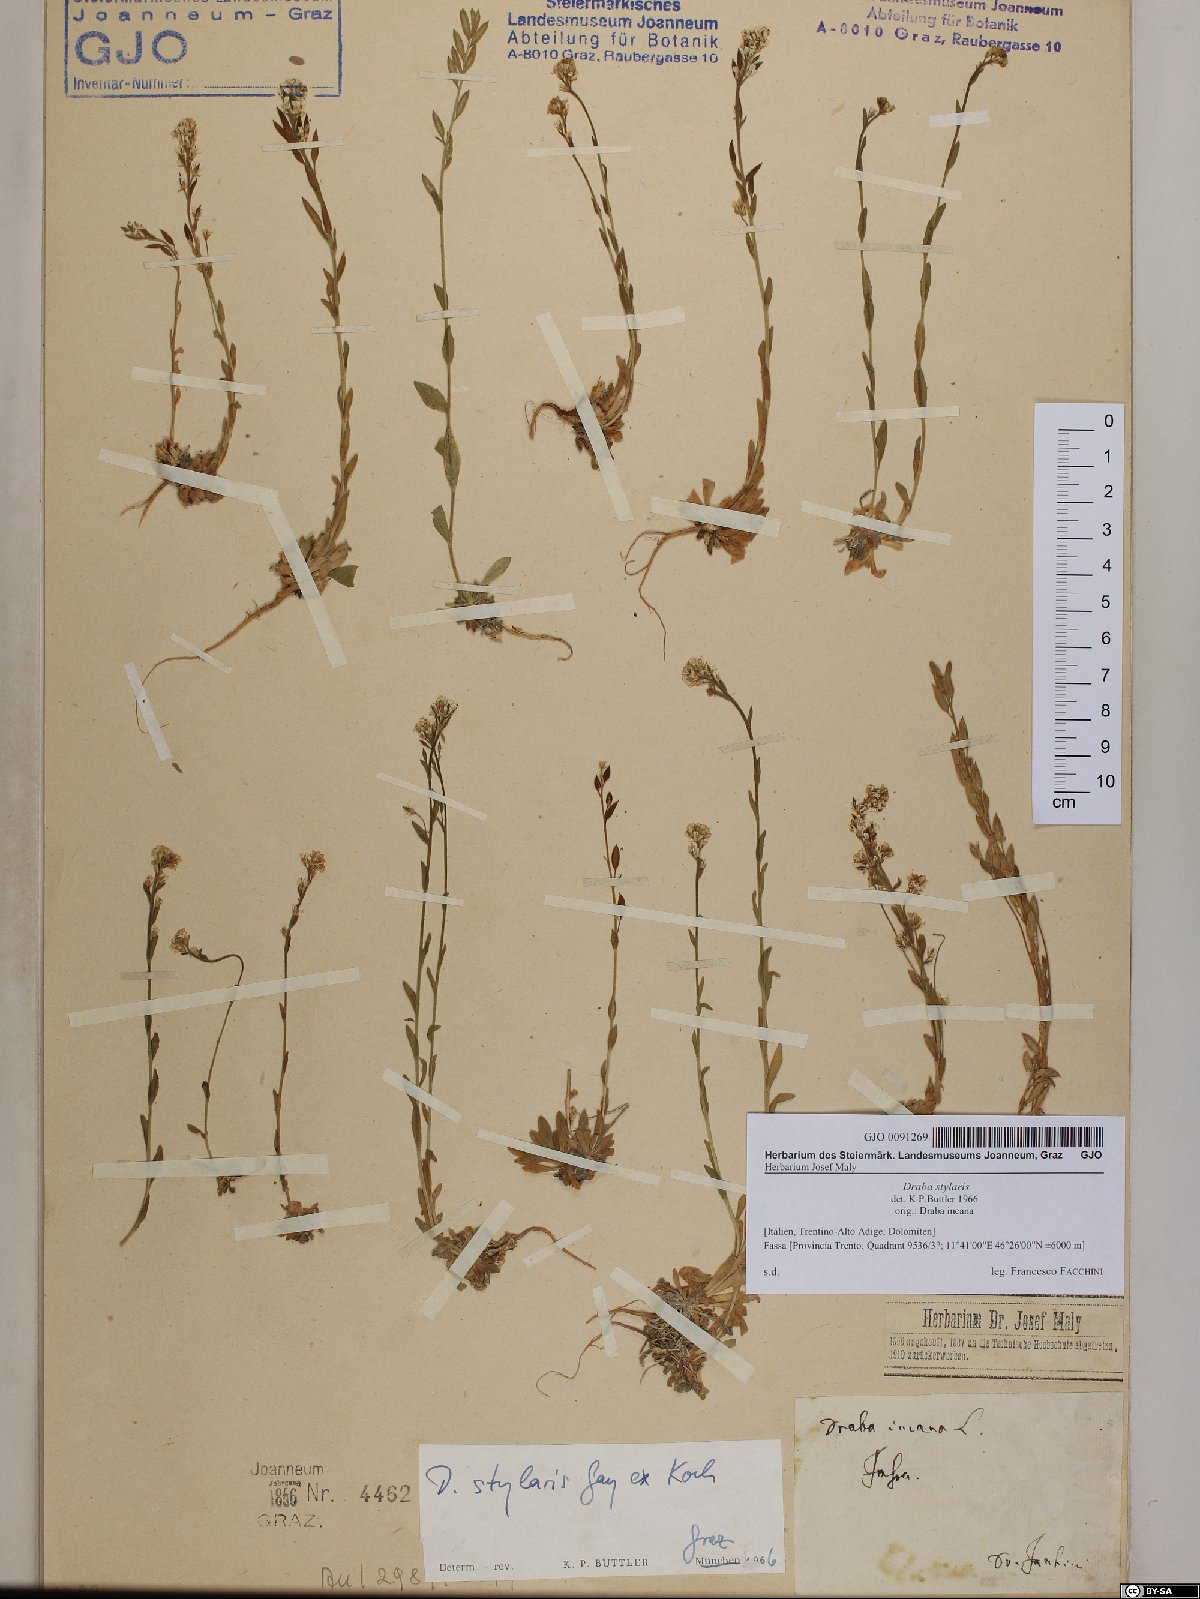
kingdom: Plantae
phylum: Tracheophyta
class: Magnoliopsida
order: Brassicales
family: Brassicaceae
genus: Draba
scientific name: Draba thomasii
